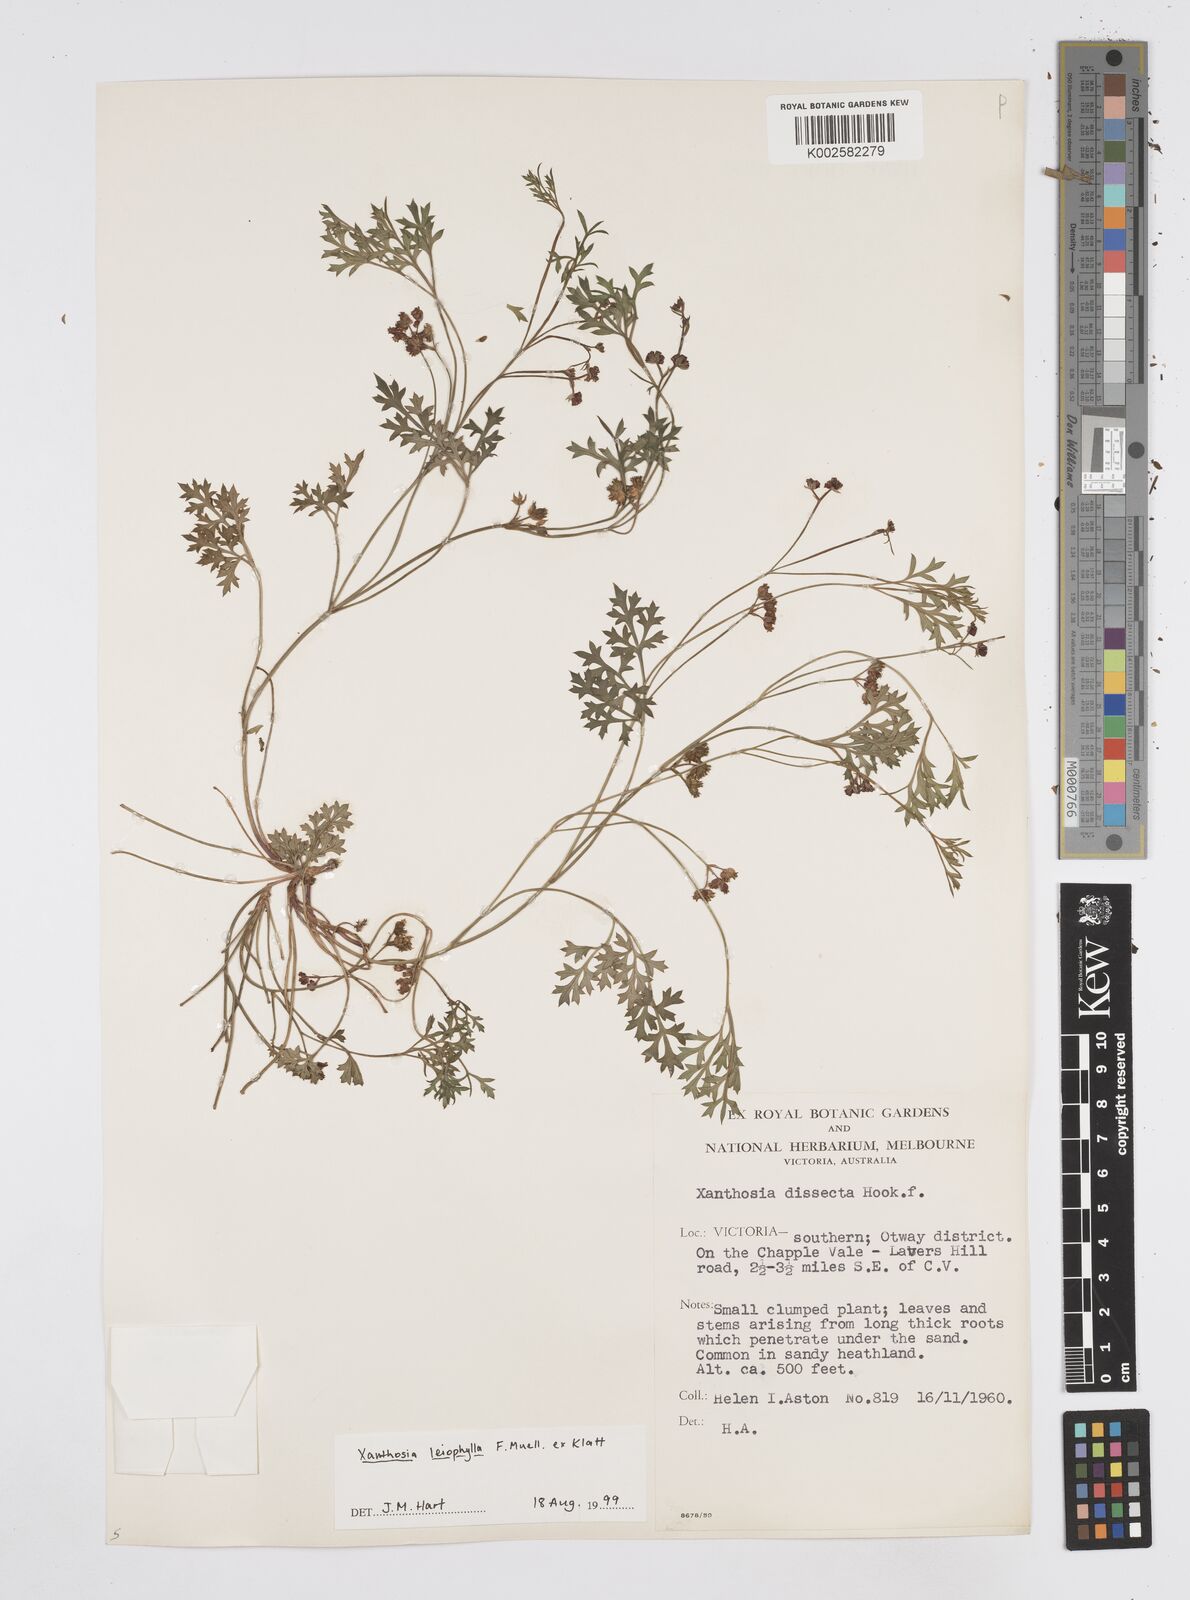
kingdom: Plantae
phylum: Tracheophyta
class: Magnoliopsida
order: Apiales
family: Apiaceae
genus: Xanthosia
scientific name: Xanthosia leiophylla
